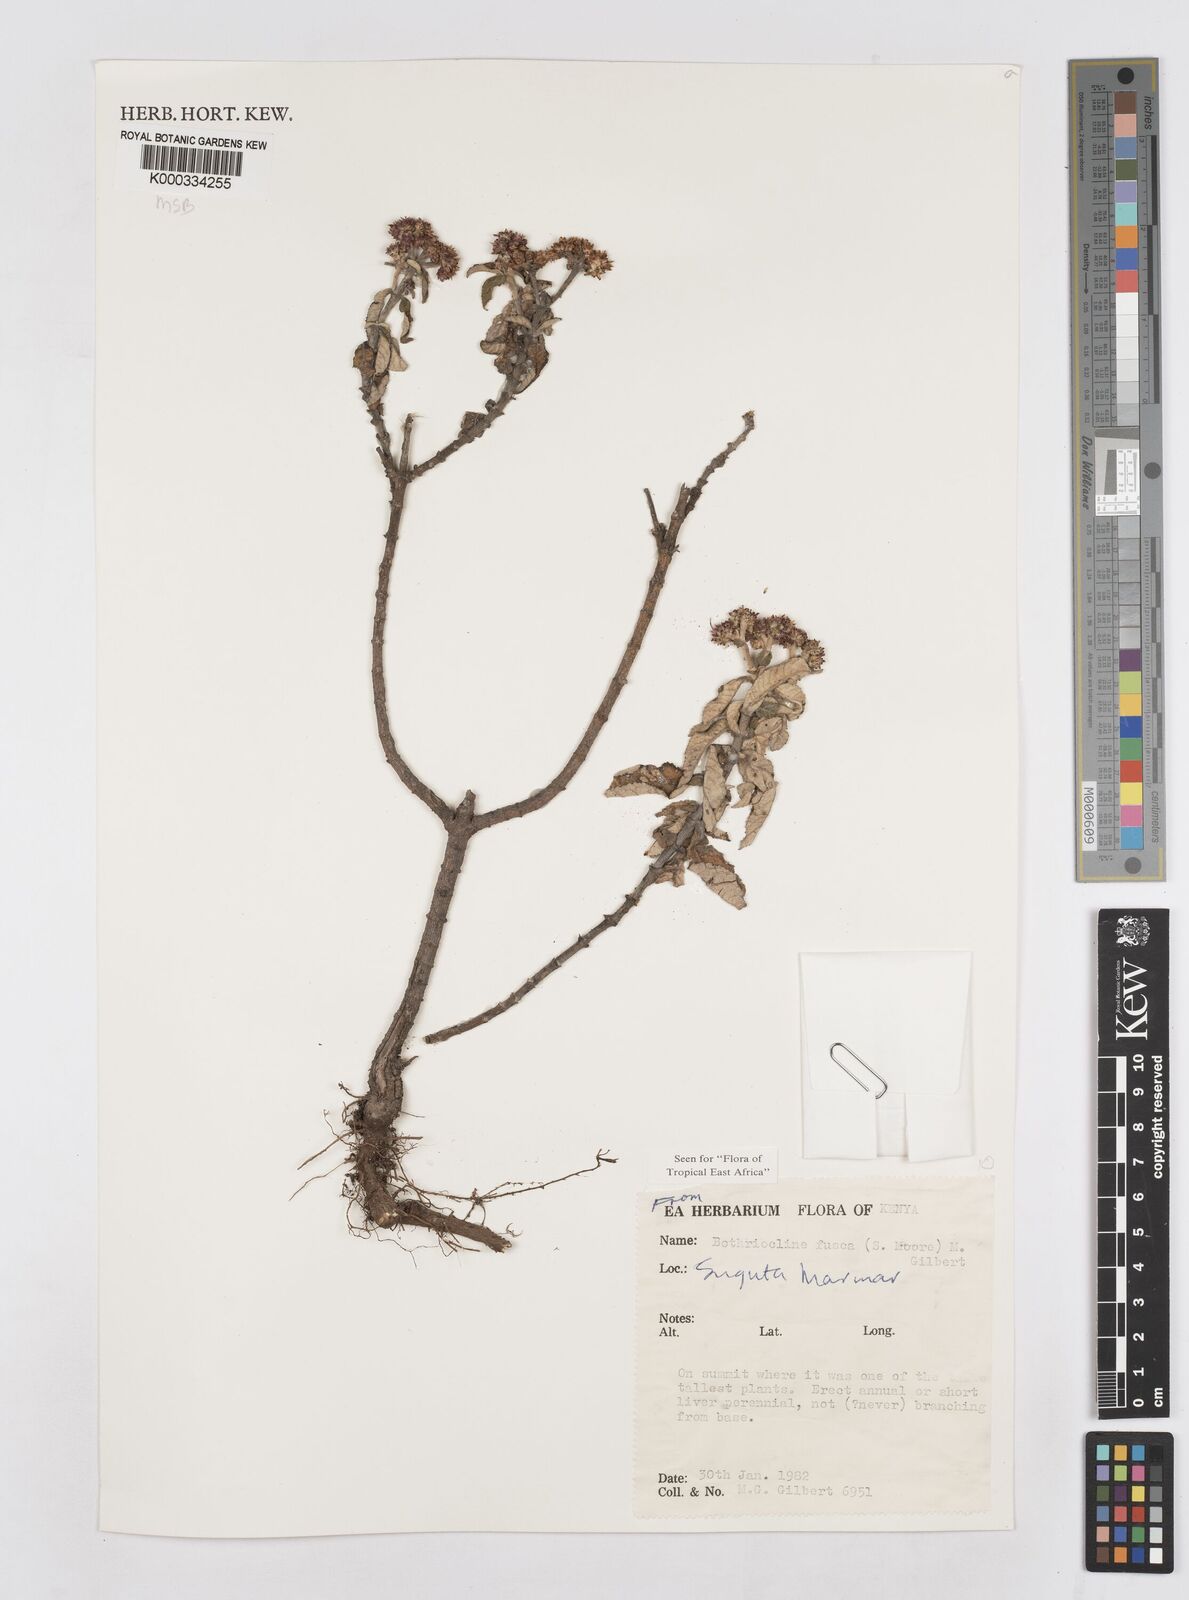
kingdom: Plantae
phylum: Tracheophyta
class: Magnoliopsida
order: Asterales
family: Asteraceae
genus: Bothriocline
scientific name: Bothriocline fusca
